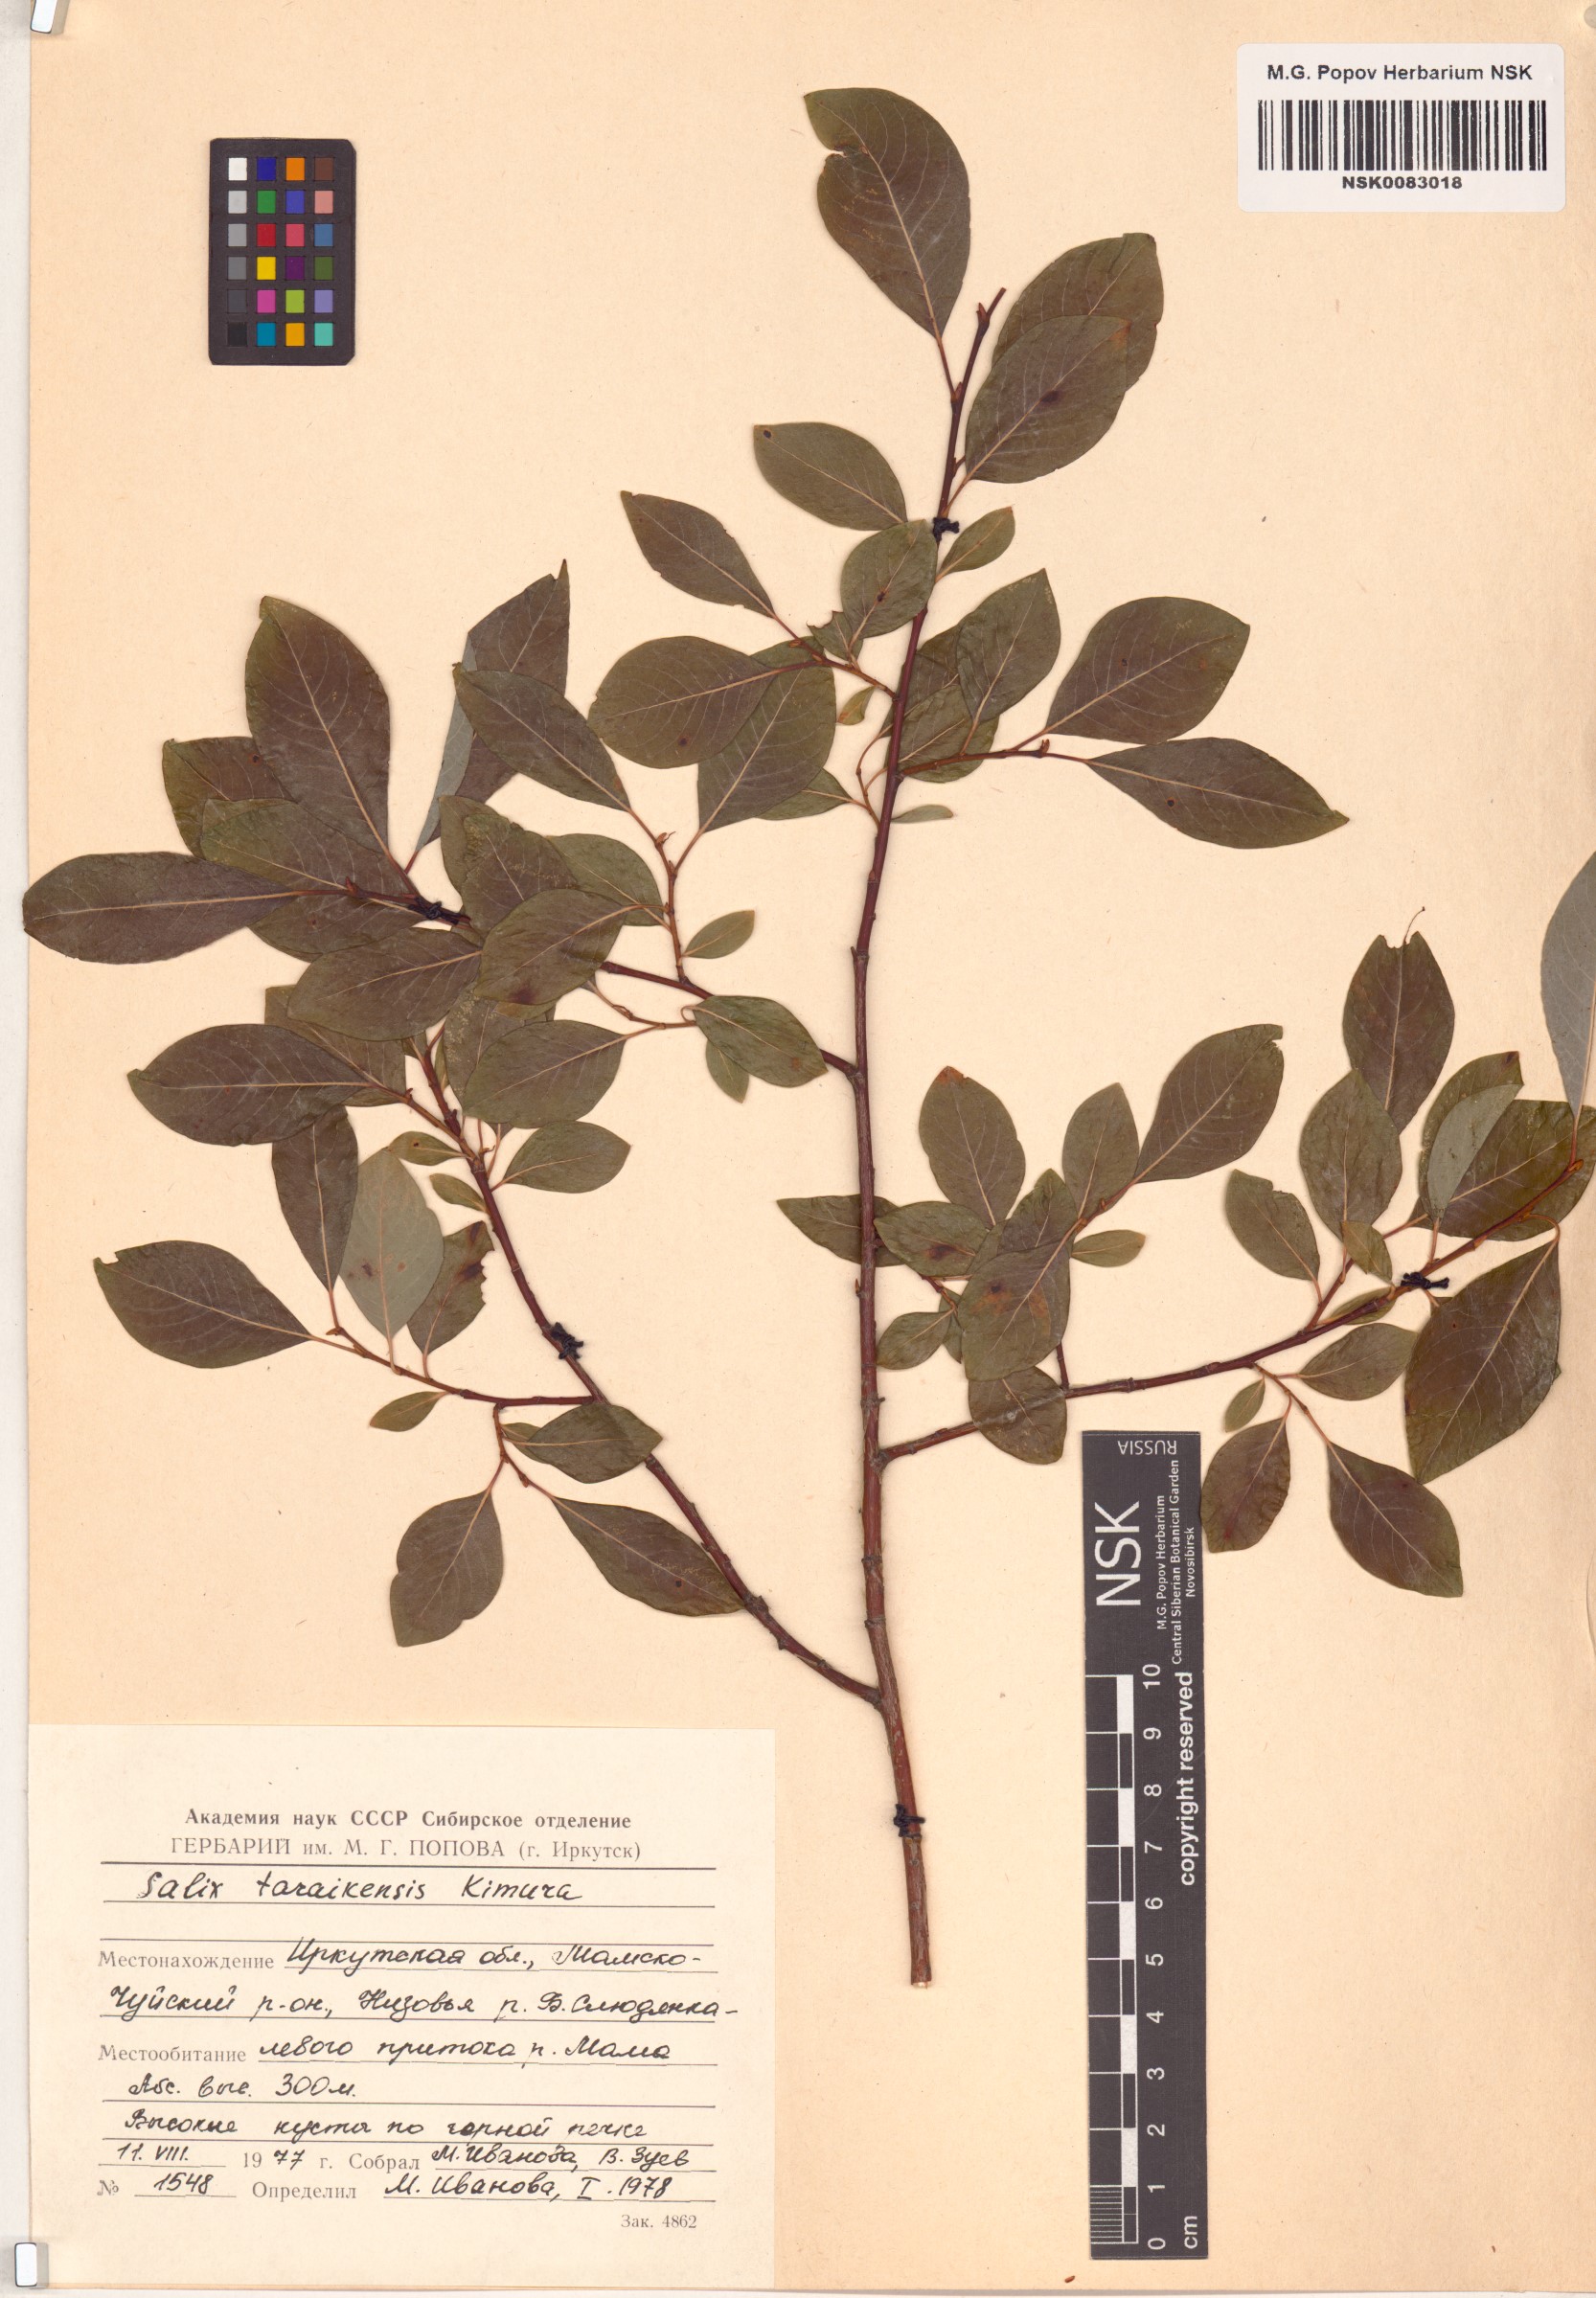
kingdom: Plantae
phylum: Tracheophyta
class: Magnoliopsida
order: Malpighiales
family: Salicaceae
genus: Salix
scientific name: Salix taraikensis
